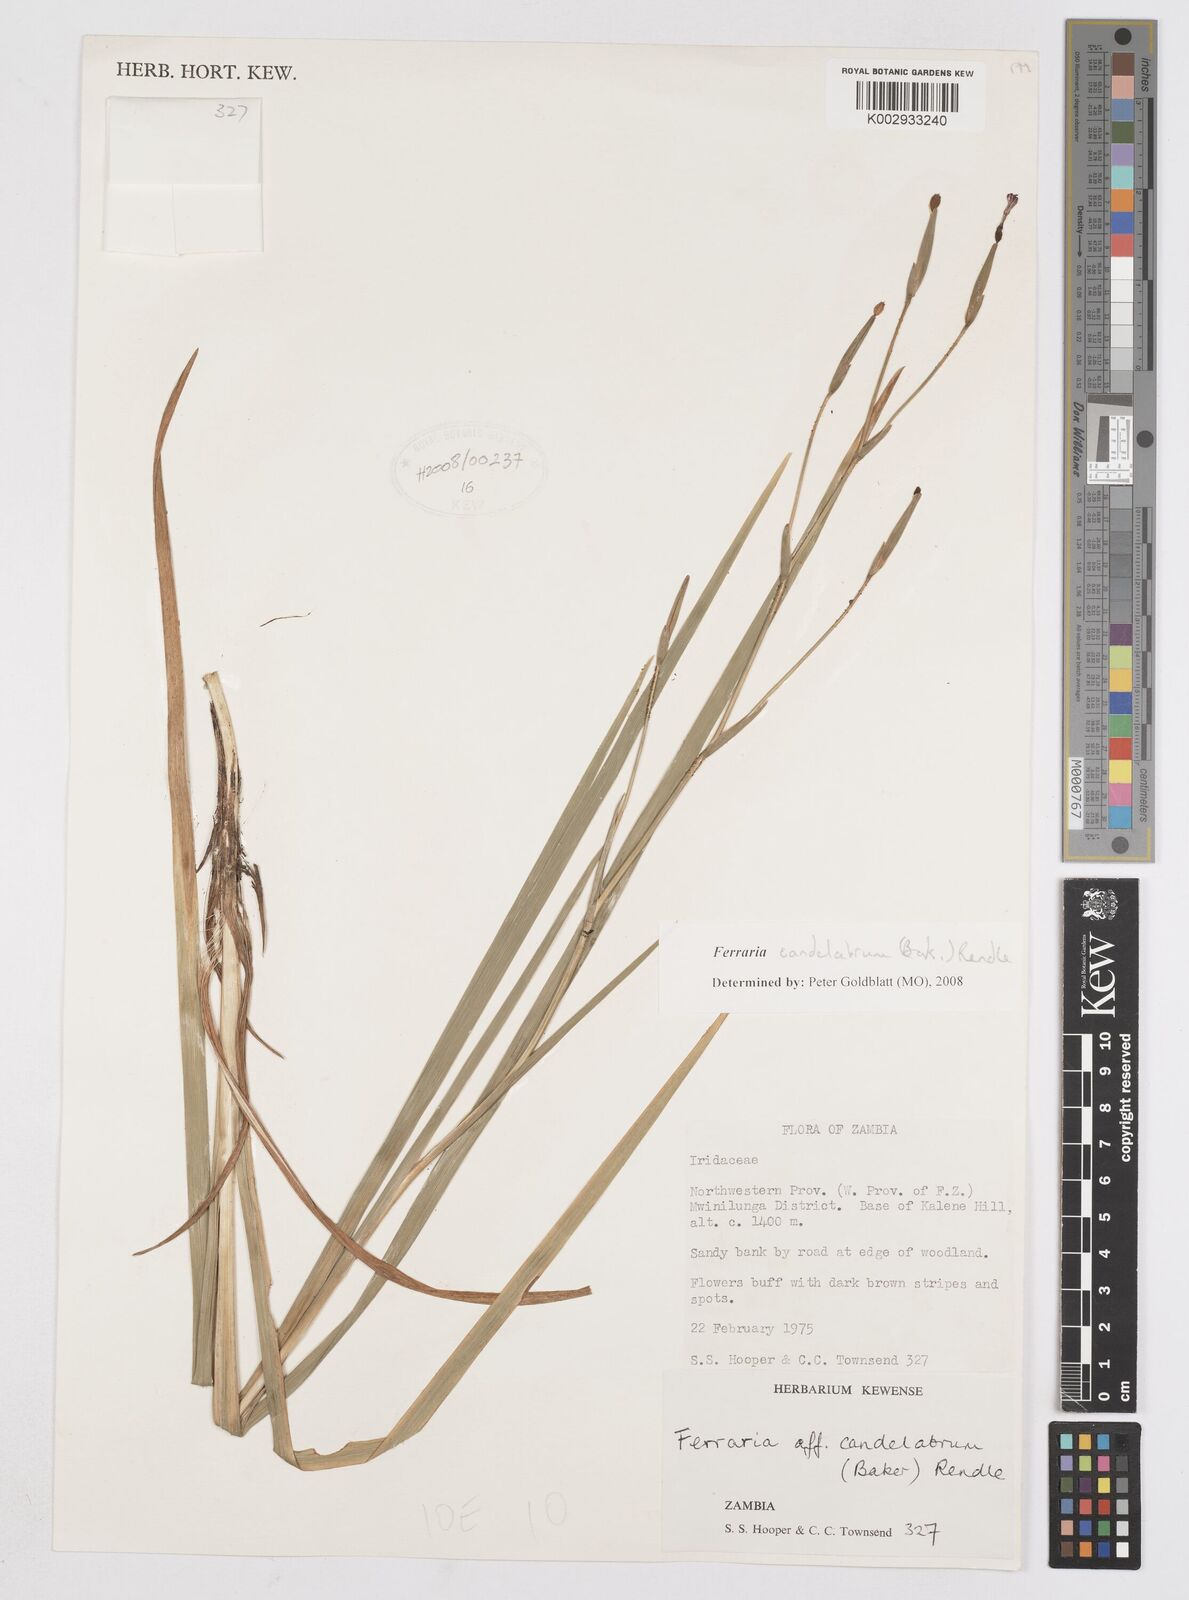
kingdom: Plantae
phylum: Tracheophyta
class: Liliopsida
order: Asparagales
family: Iridaceae
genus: Ferraria
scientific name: Ferraria candelabrum
